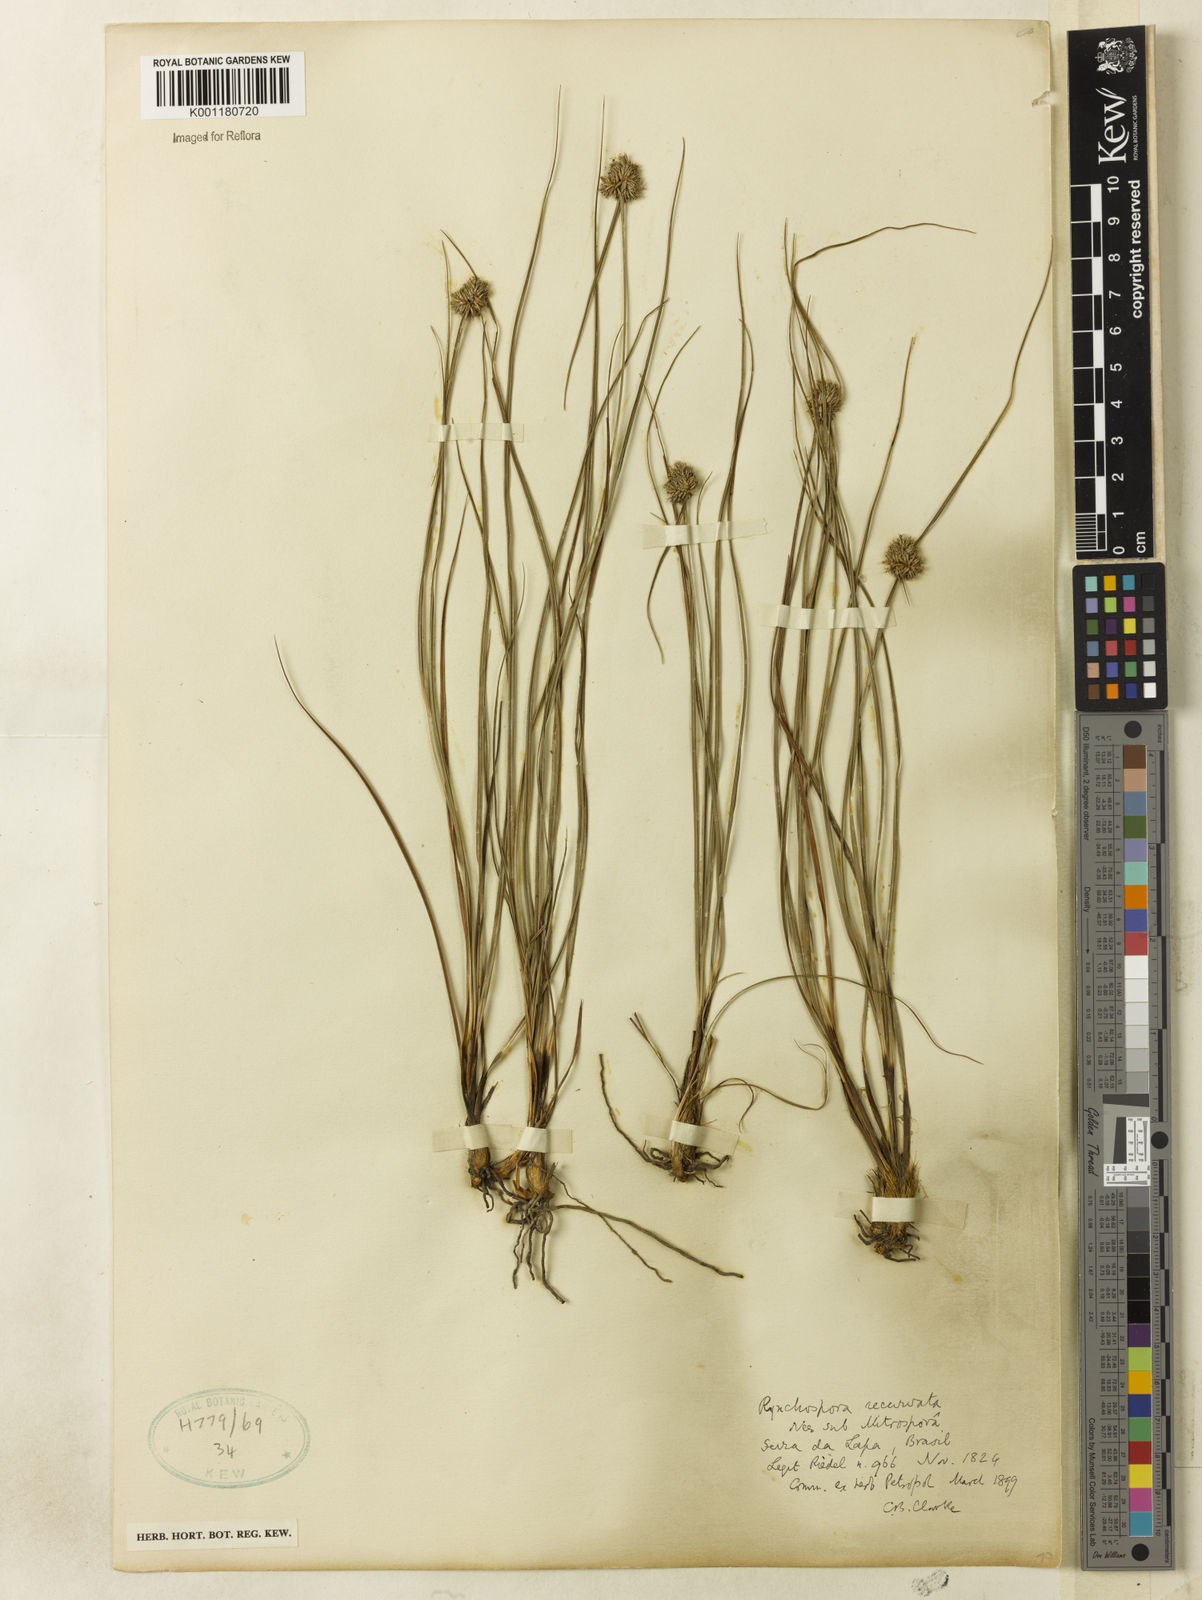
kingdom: Plantae
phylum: Tracheophyta
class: Liliopsida
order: Poales
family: Cyperaceae
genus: Rhynchospora
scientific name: Rhynchospora recurvata
